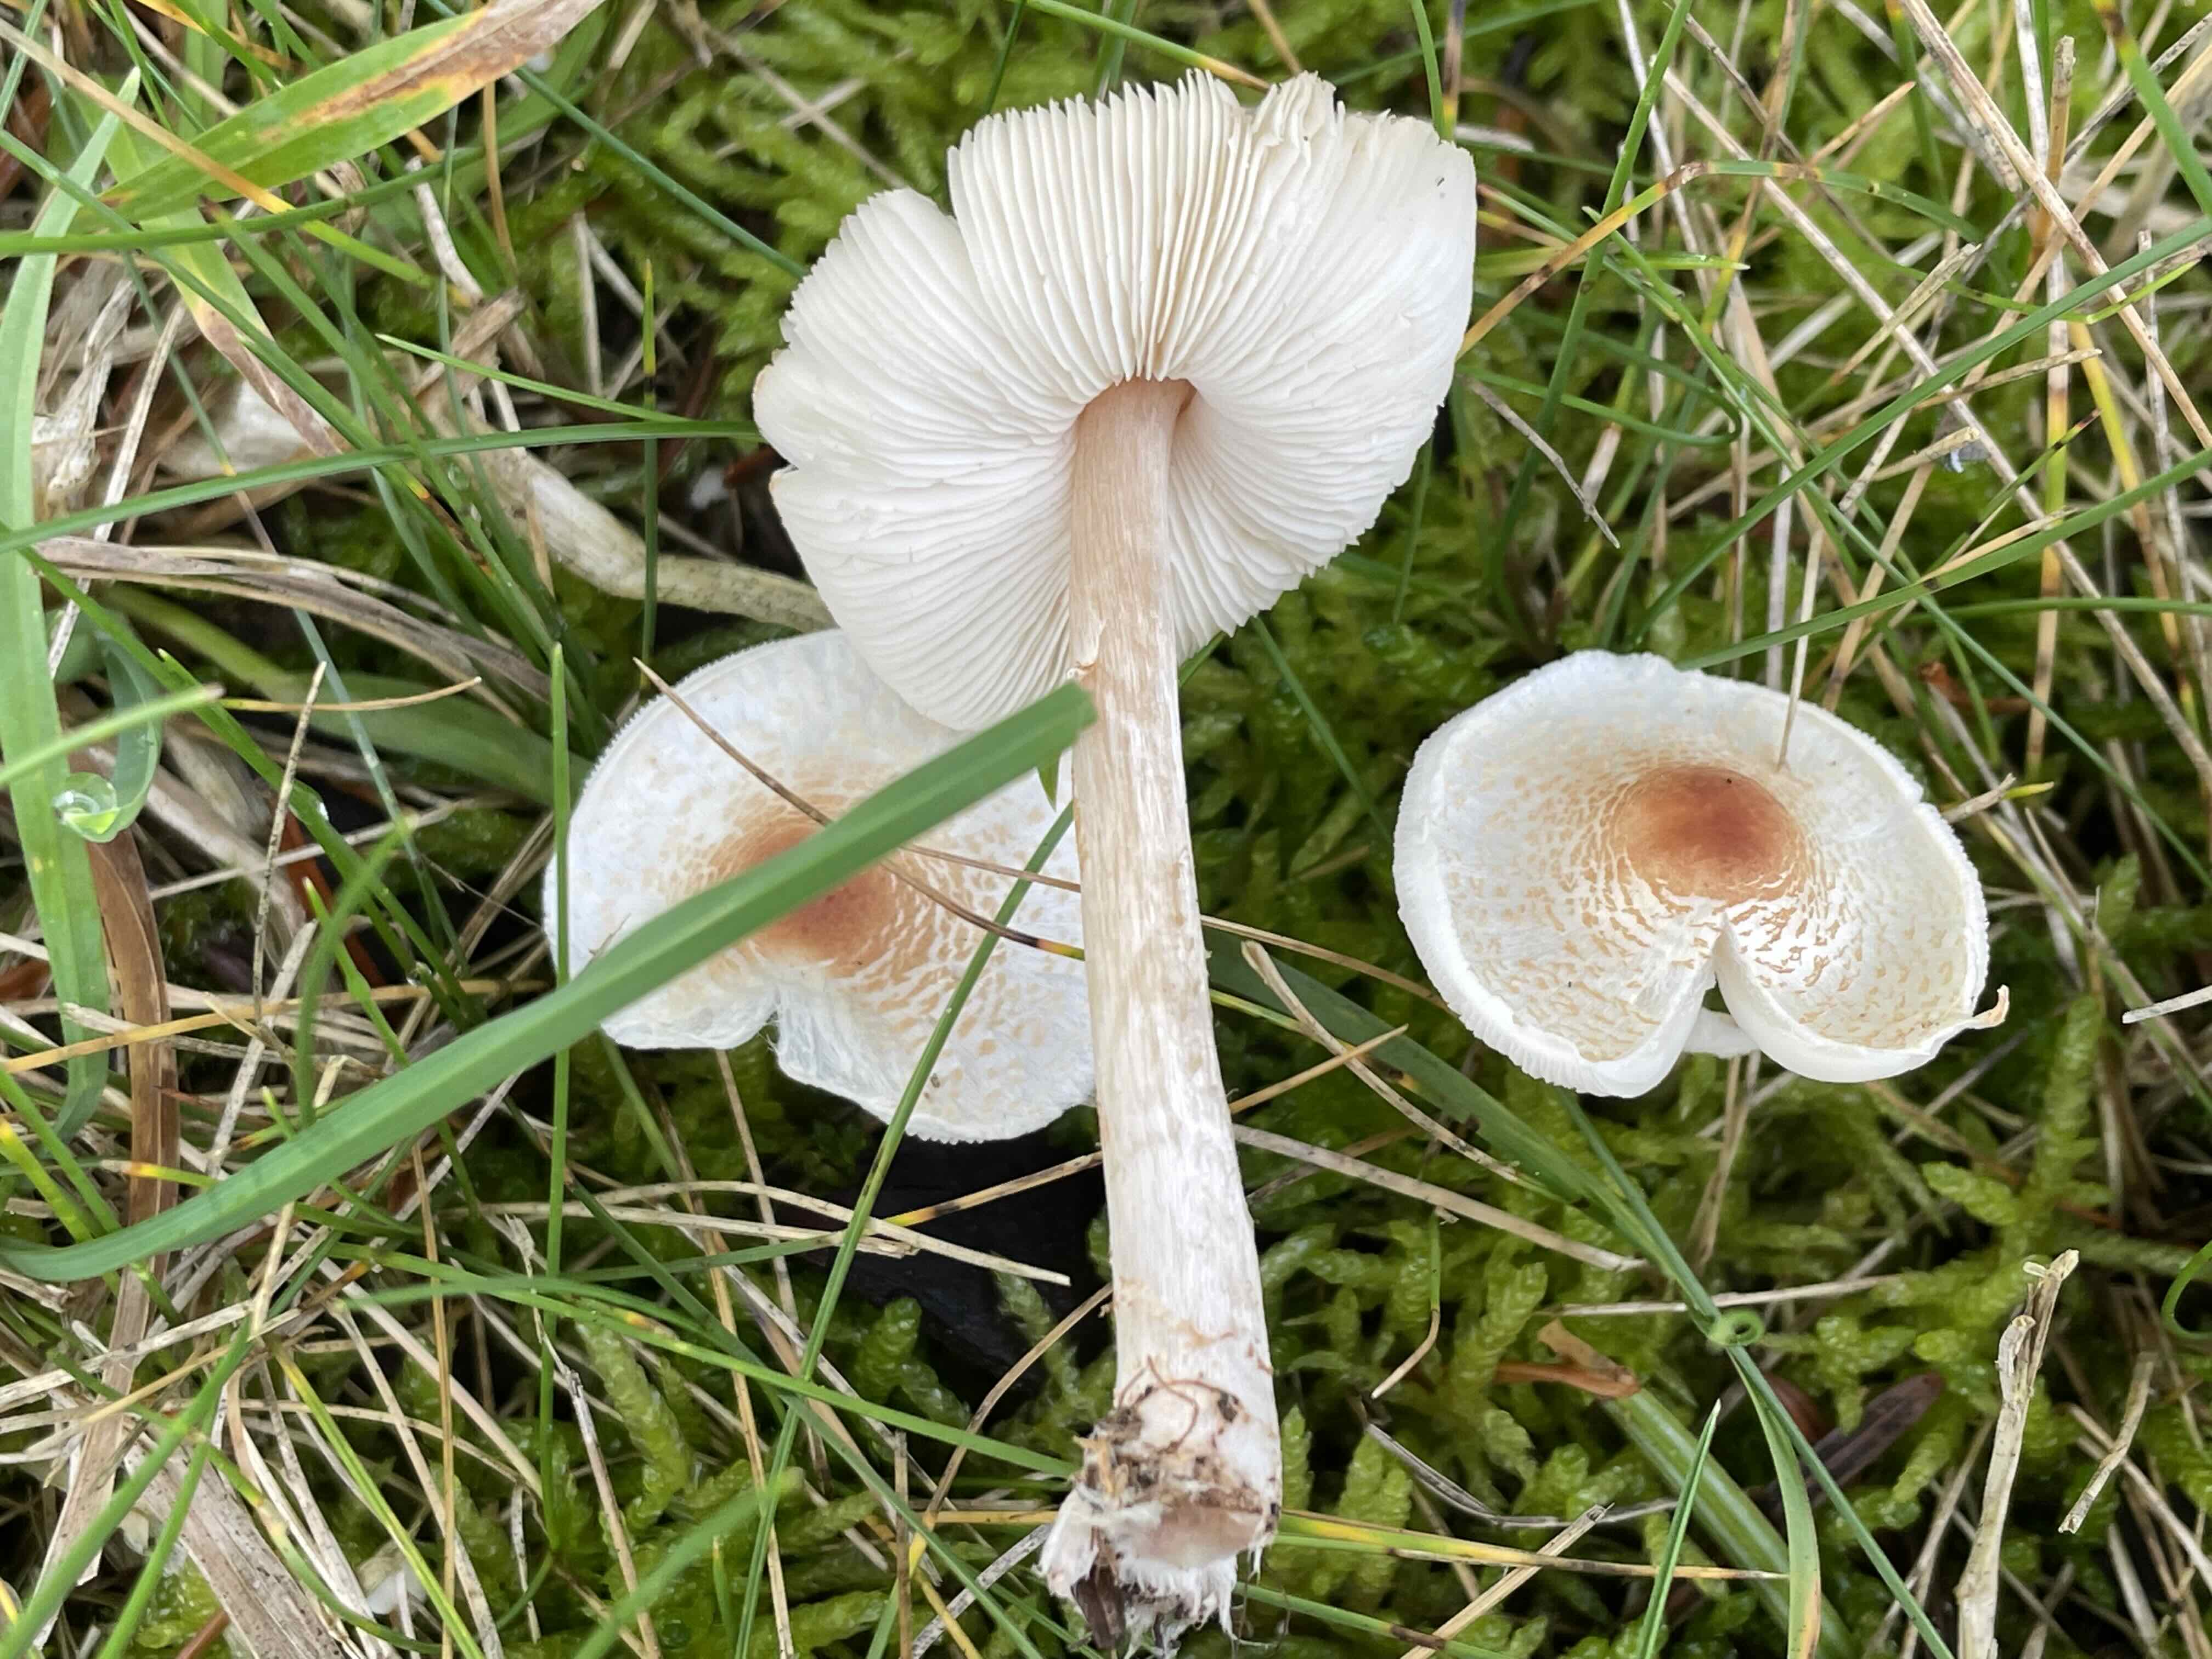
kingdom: Fungi
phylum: Basidiomycota
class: Agaricomycetes
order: Agaricales
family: Agaricaceae
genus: Lepiota
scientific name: Lepiota cristata
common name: stinkende parasolhat
